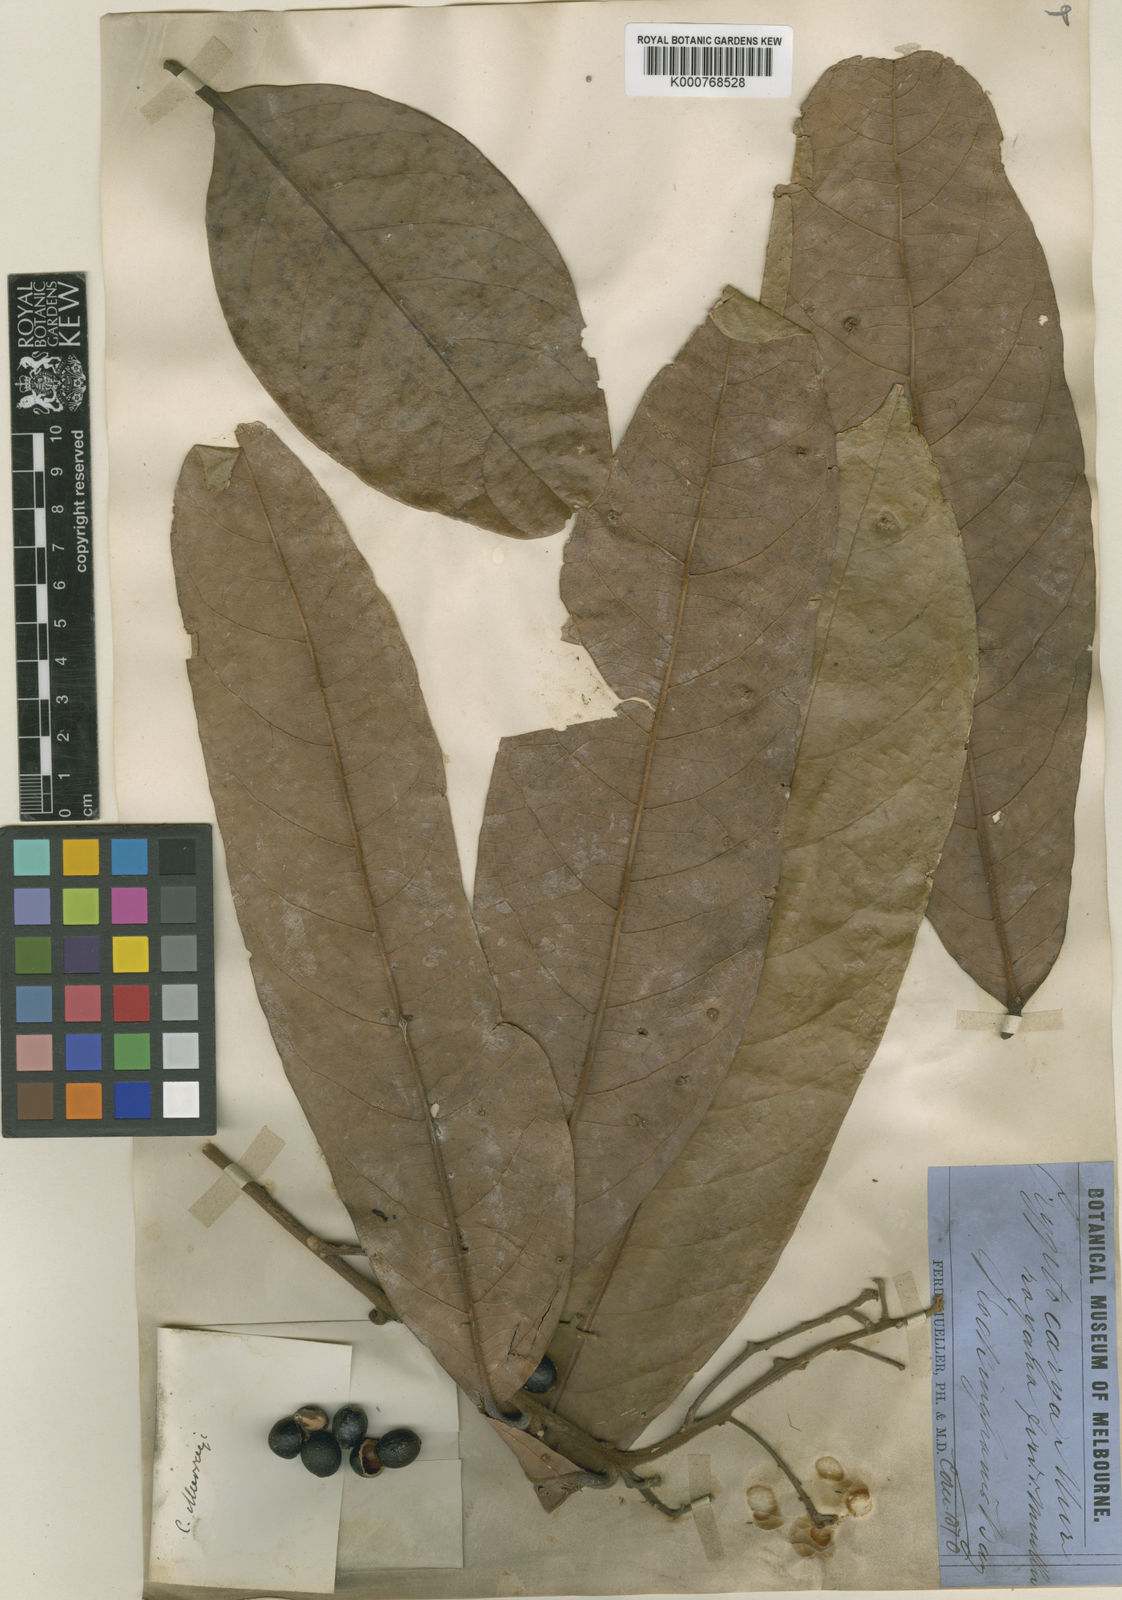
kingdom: Plantae
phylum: Tracheophyta
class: Magnoliopsida
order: Laurales
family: Lauraceae
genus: Cryptocarya
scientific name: Cryptocarya murrayi
